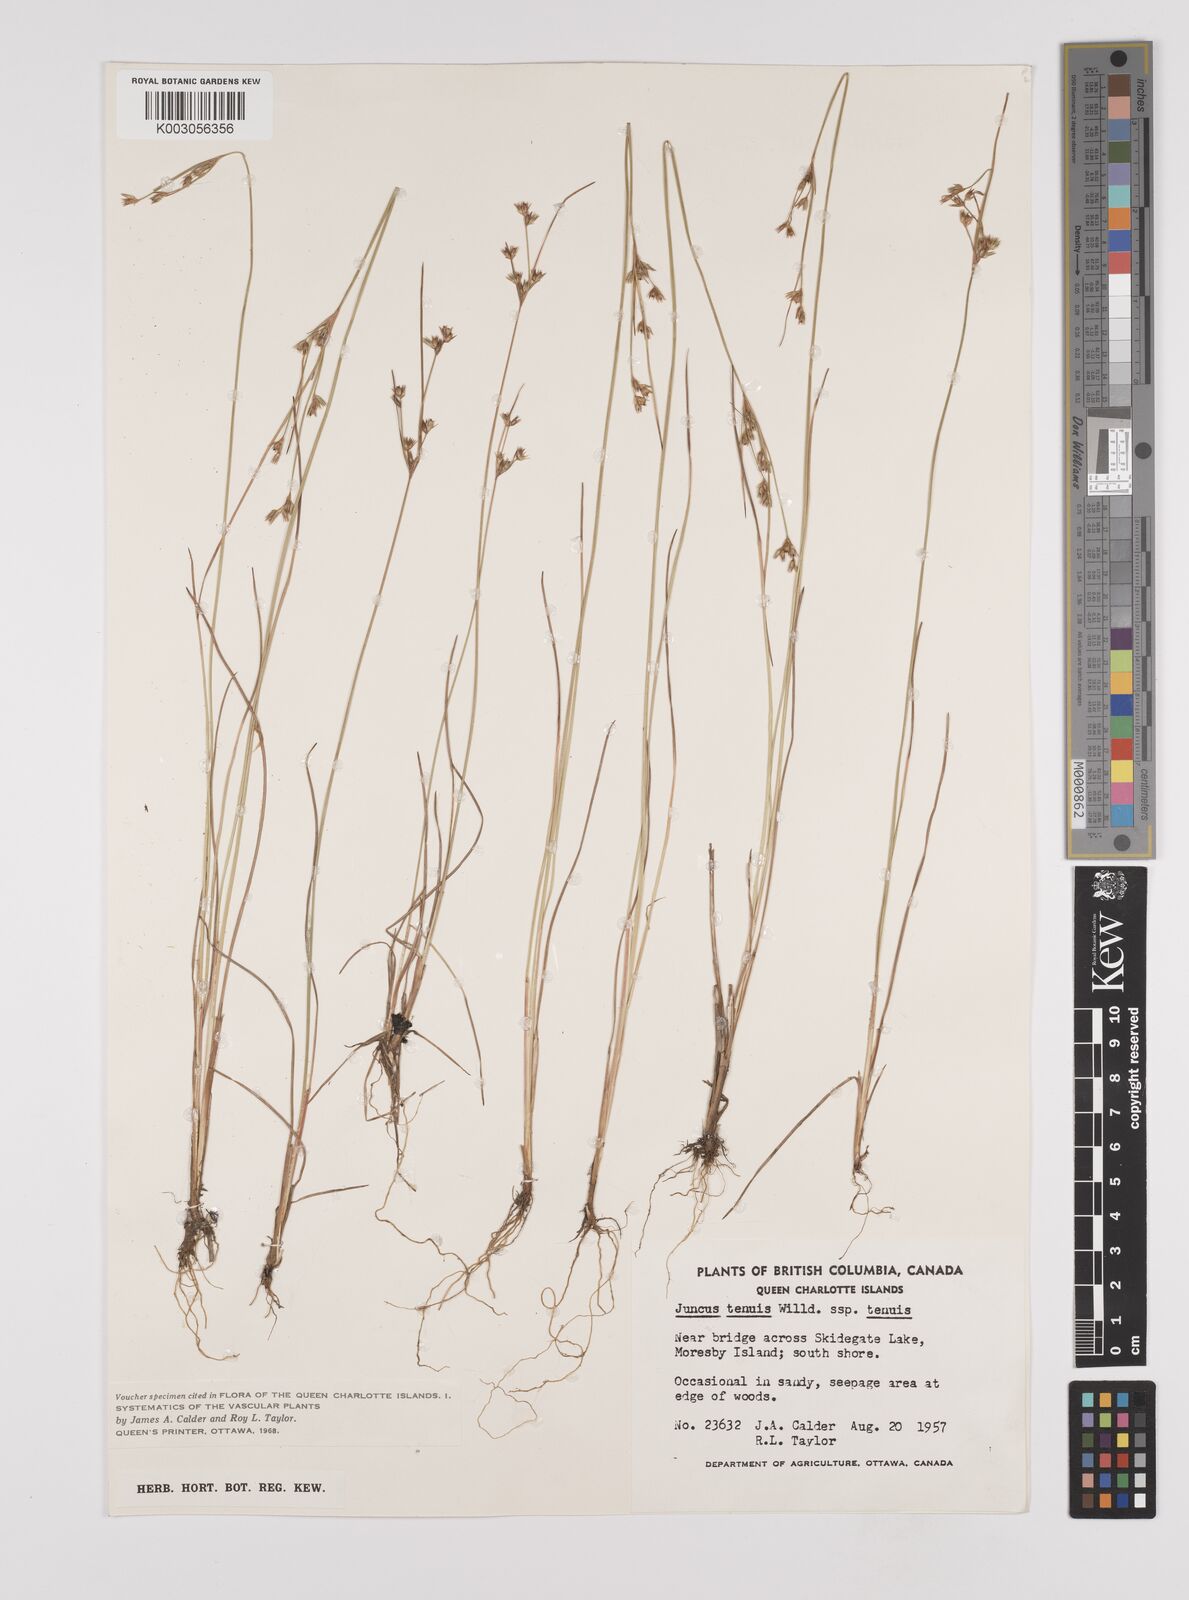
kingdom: Plantae
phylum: Tracheophyta
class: Liliopsida
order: Poales
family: Juncaceae
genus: Juncus
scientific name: Juncus tenuis
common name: Slender rush
